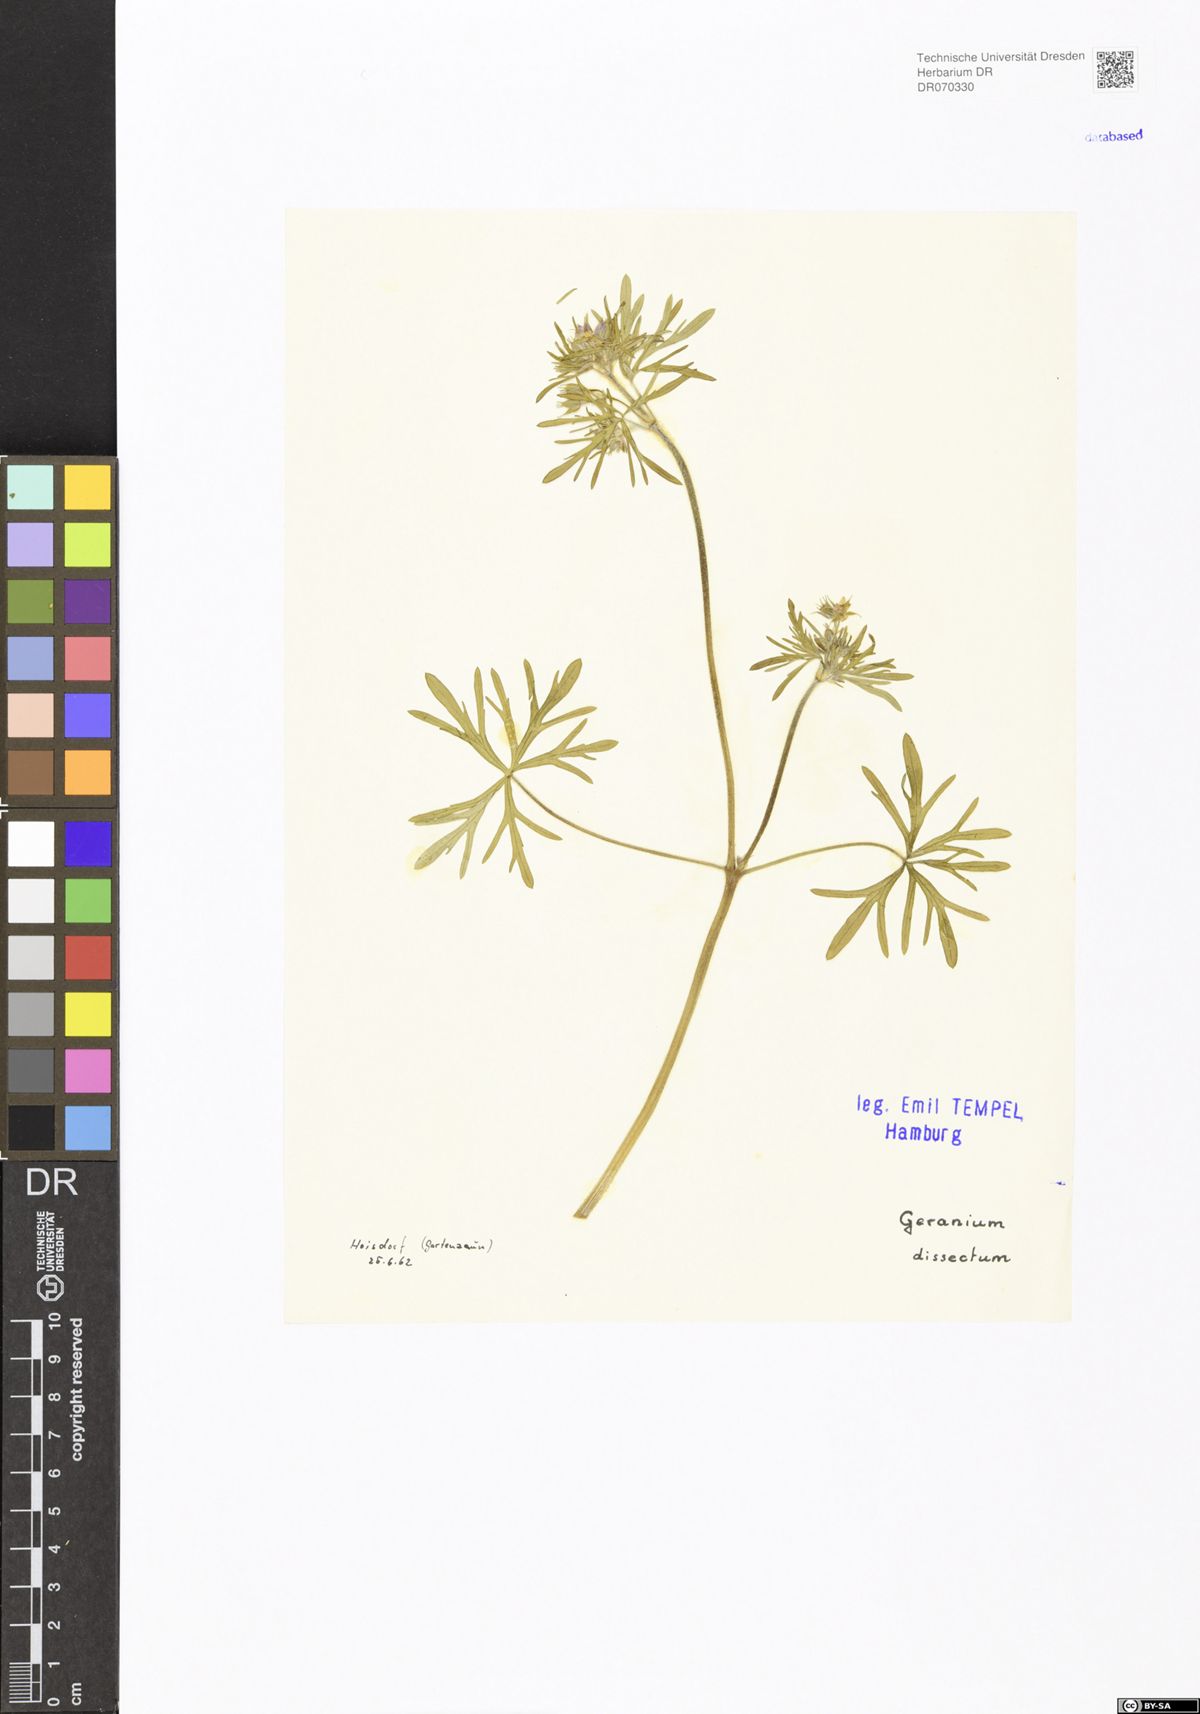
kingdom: Plantae
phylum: Tracheophyta
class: Magnoliopsida
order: Geraniales
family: Geraniaceae
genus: Geranium
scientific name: Geranium dissectum
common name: Cut-leaved crane's-bill
